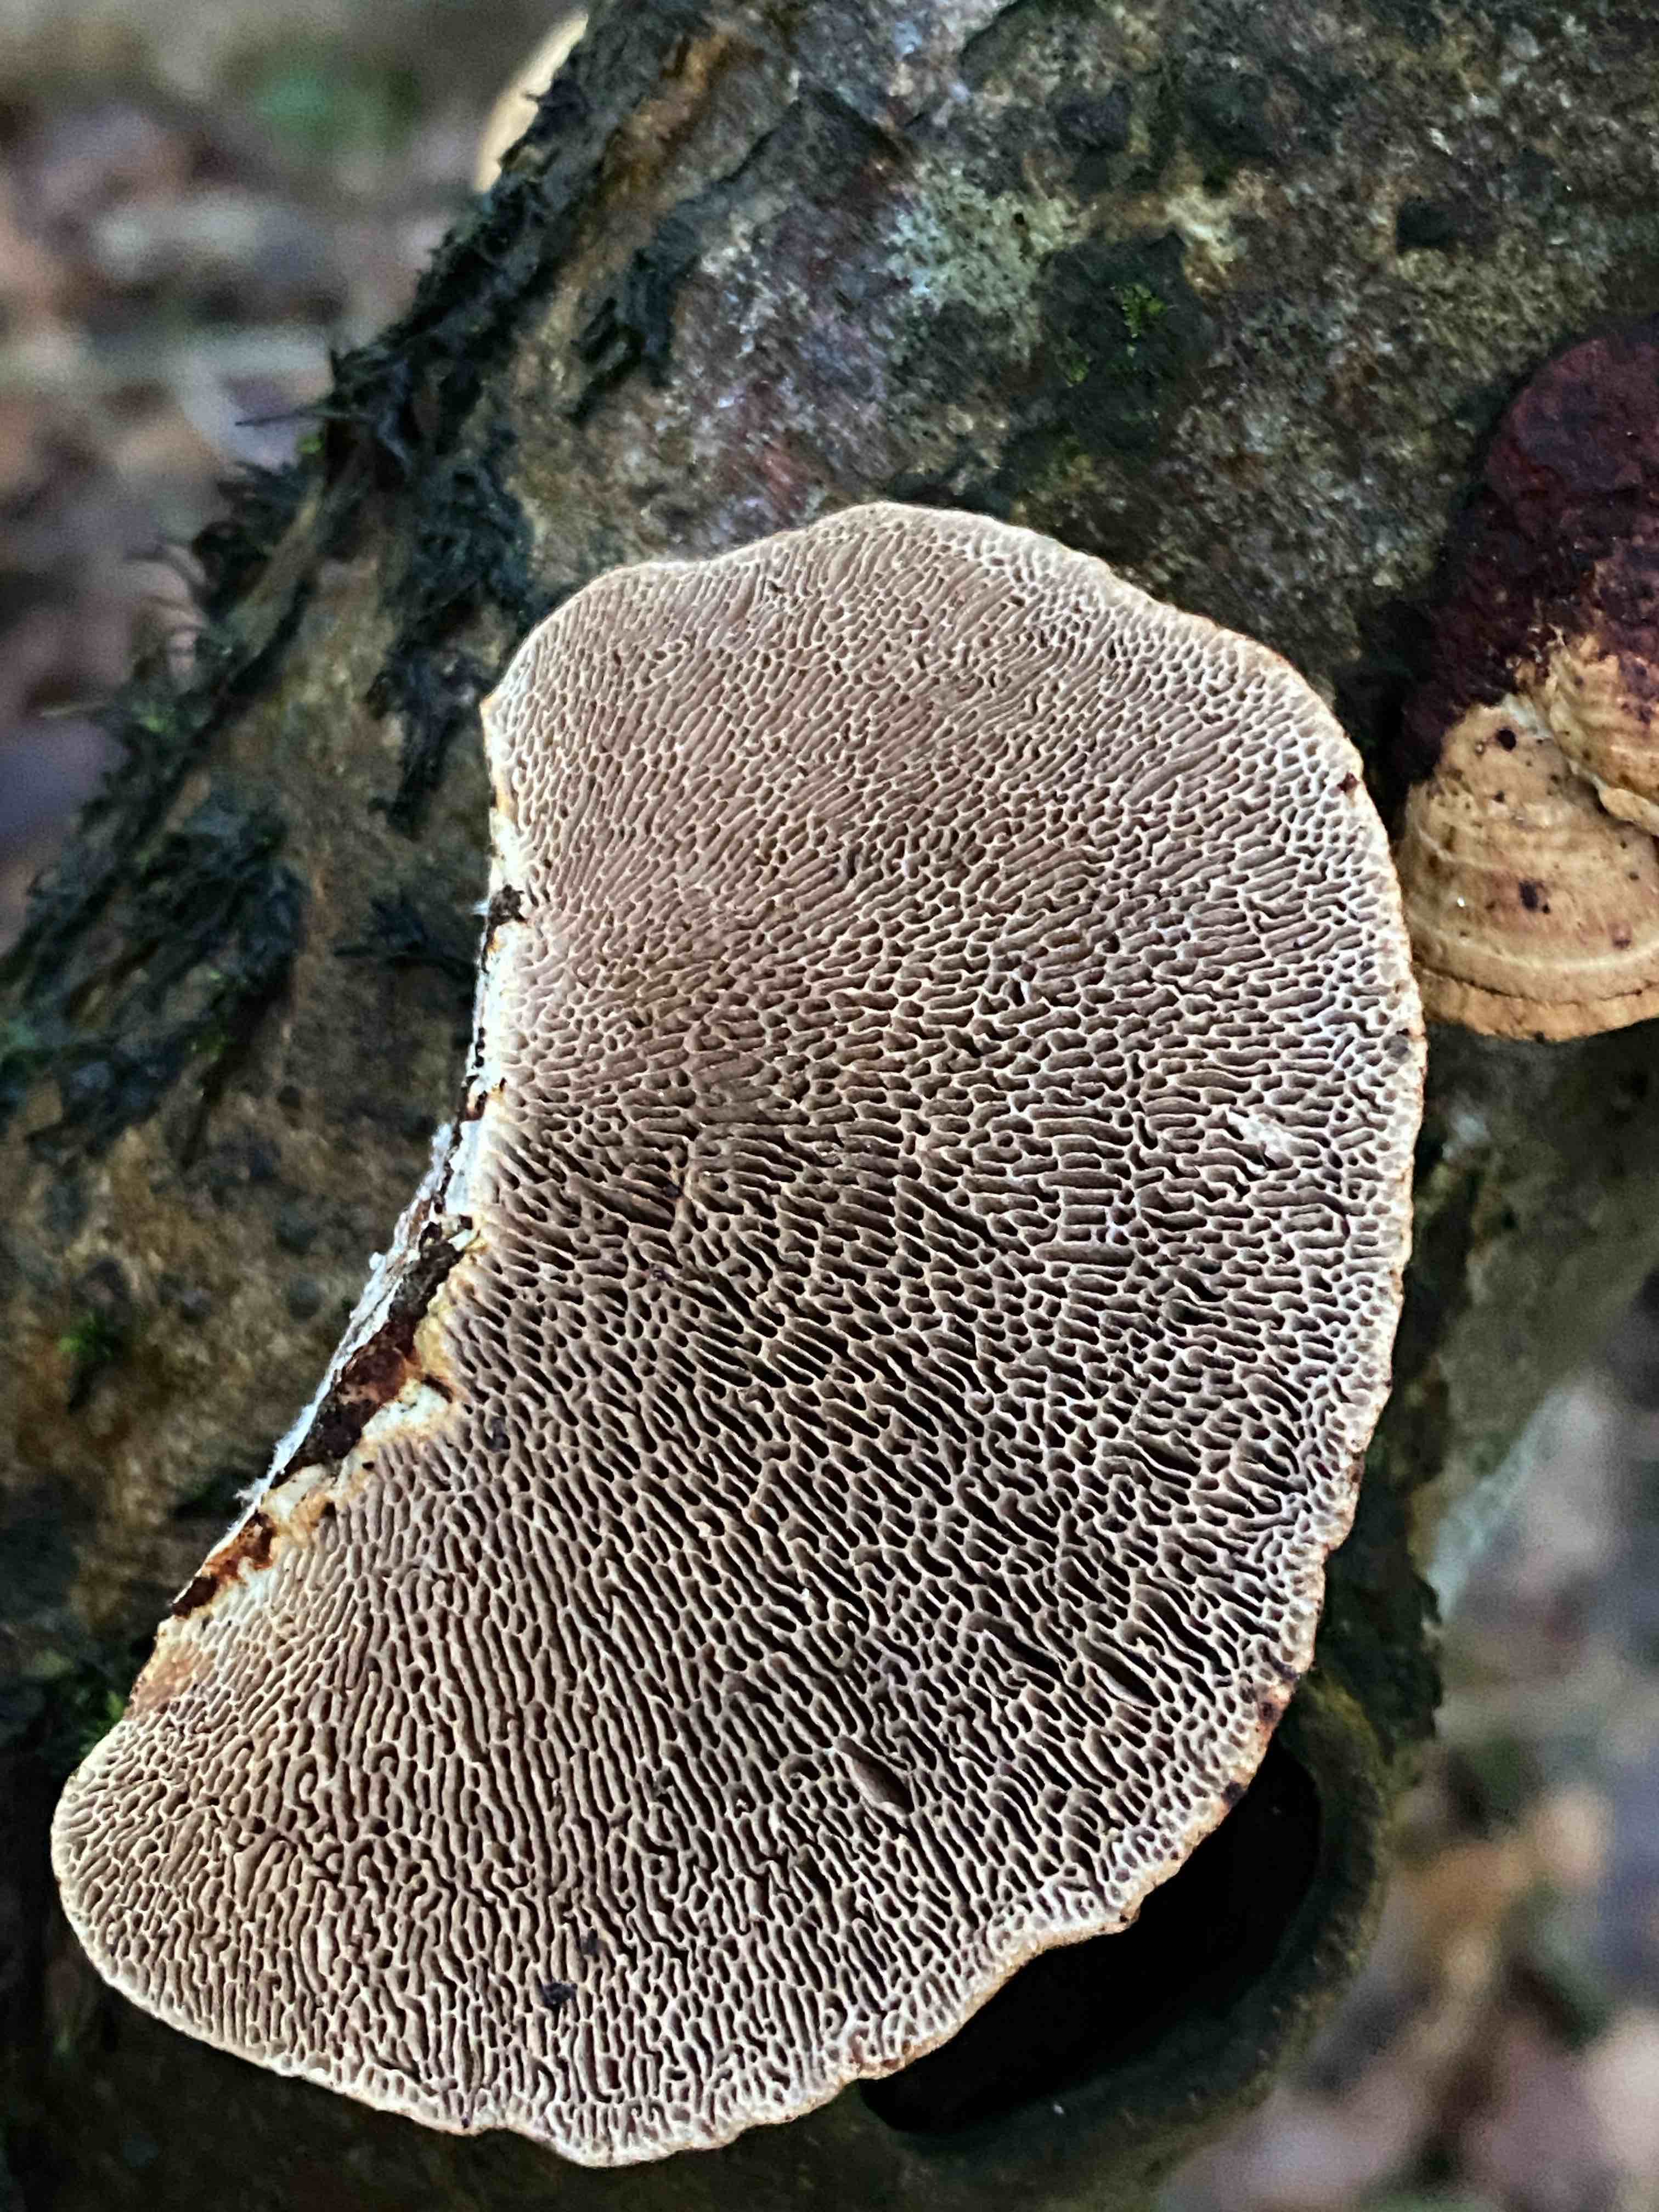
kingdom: Fungi
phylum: Basidiomycota
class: Agaricomycetes
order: Polyporales
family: Polyporaceae
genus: Daedaleopsis
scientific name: Daedaleopsis confragosa
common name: rødmende læderporesvamp
